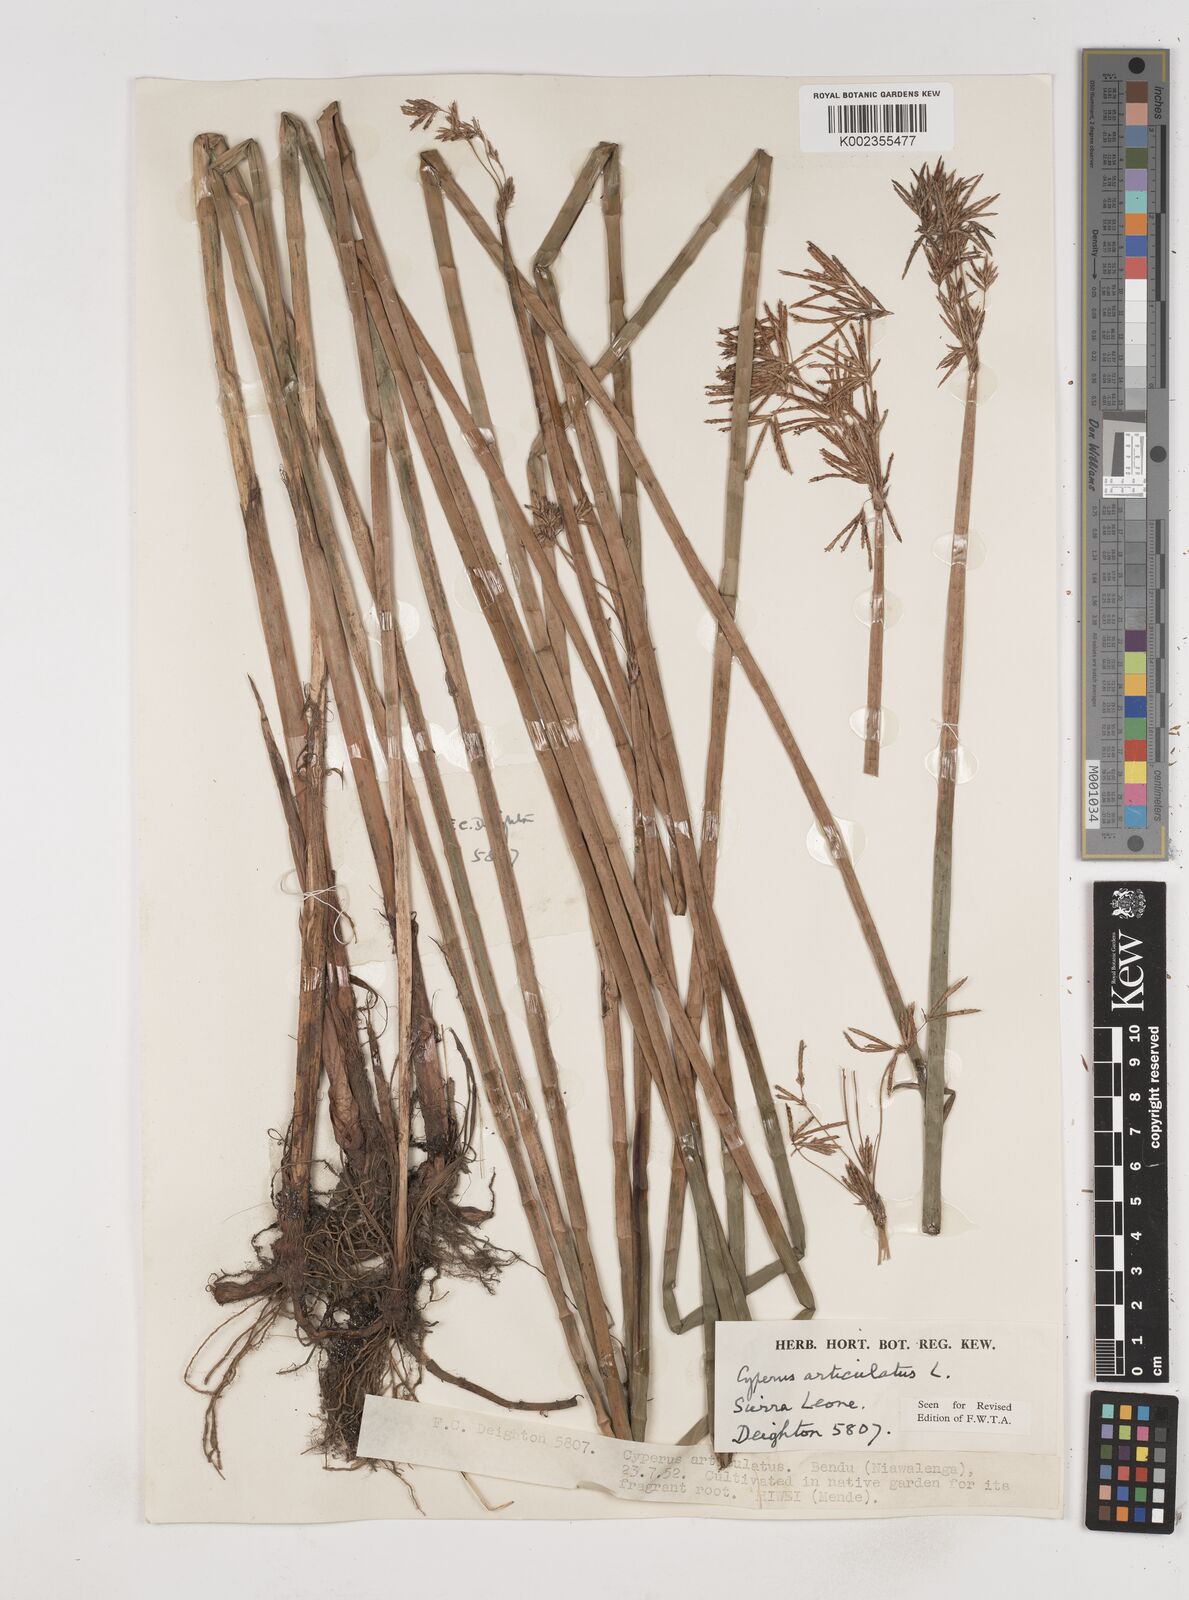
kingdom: Plantae
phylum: Tracheophyta
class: Liliopsida
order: Poales
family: Cyperaceae
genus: Cyperus
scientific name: Cyperus articulatus
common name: Jointed flatsedge
